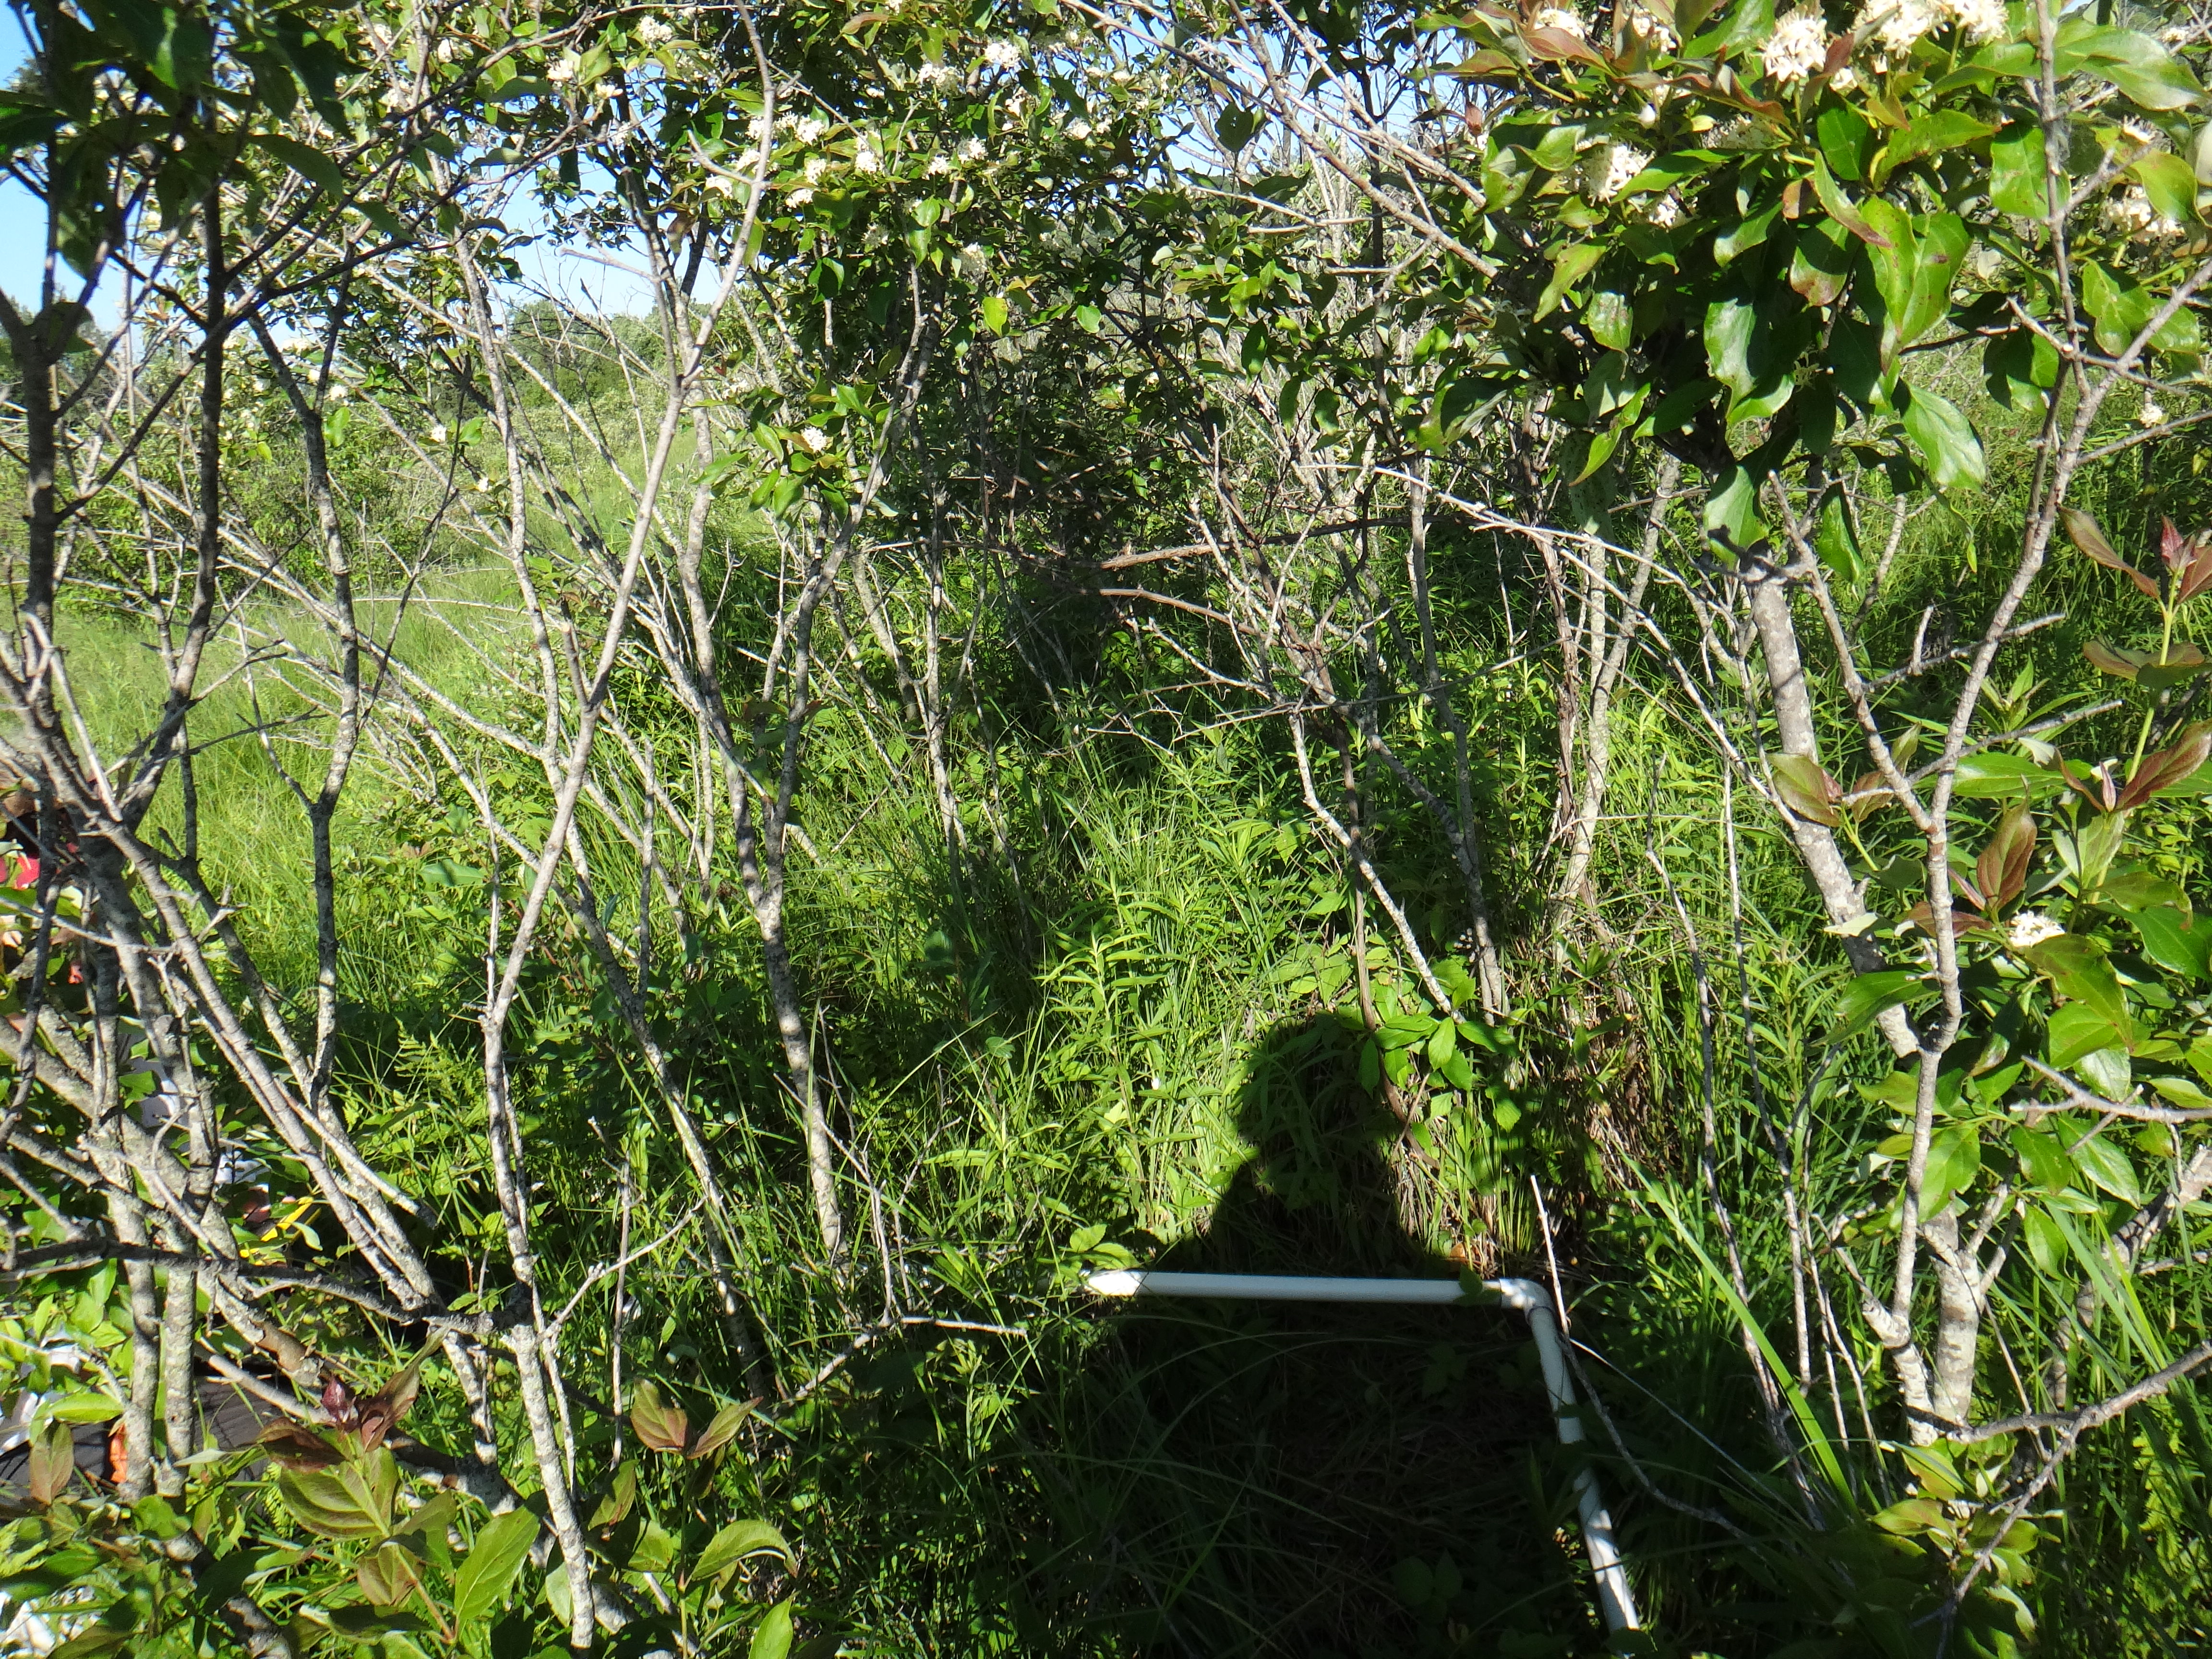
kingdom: Plantae
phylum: Tracheophyta
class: Liliopsida
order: Poales
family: Cyperaceae
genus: Schoenoplectus
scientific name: Schoenoplectus tabernaemontani
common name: Grey club-rush
